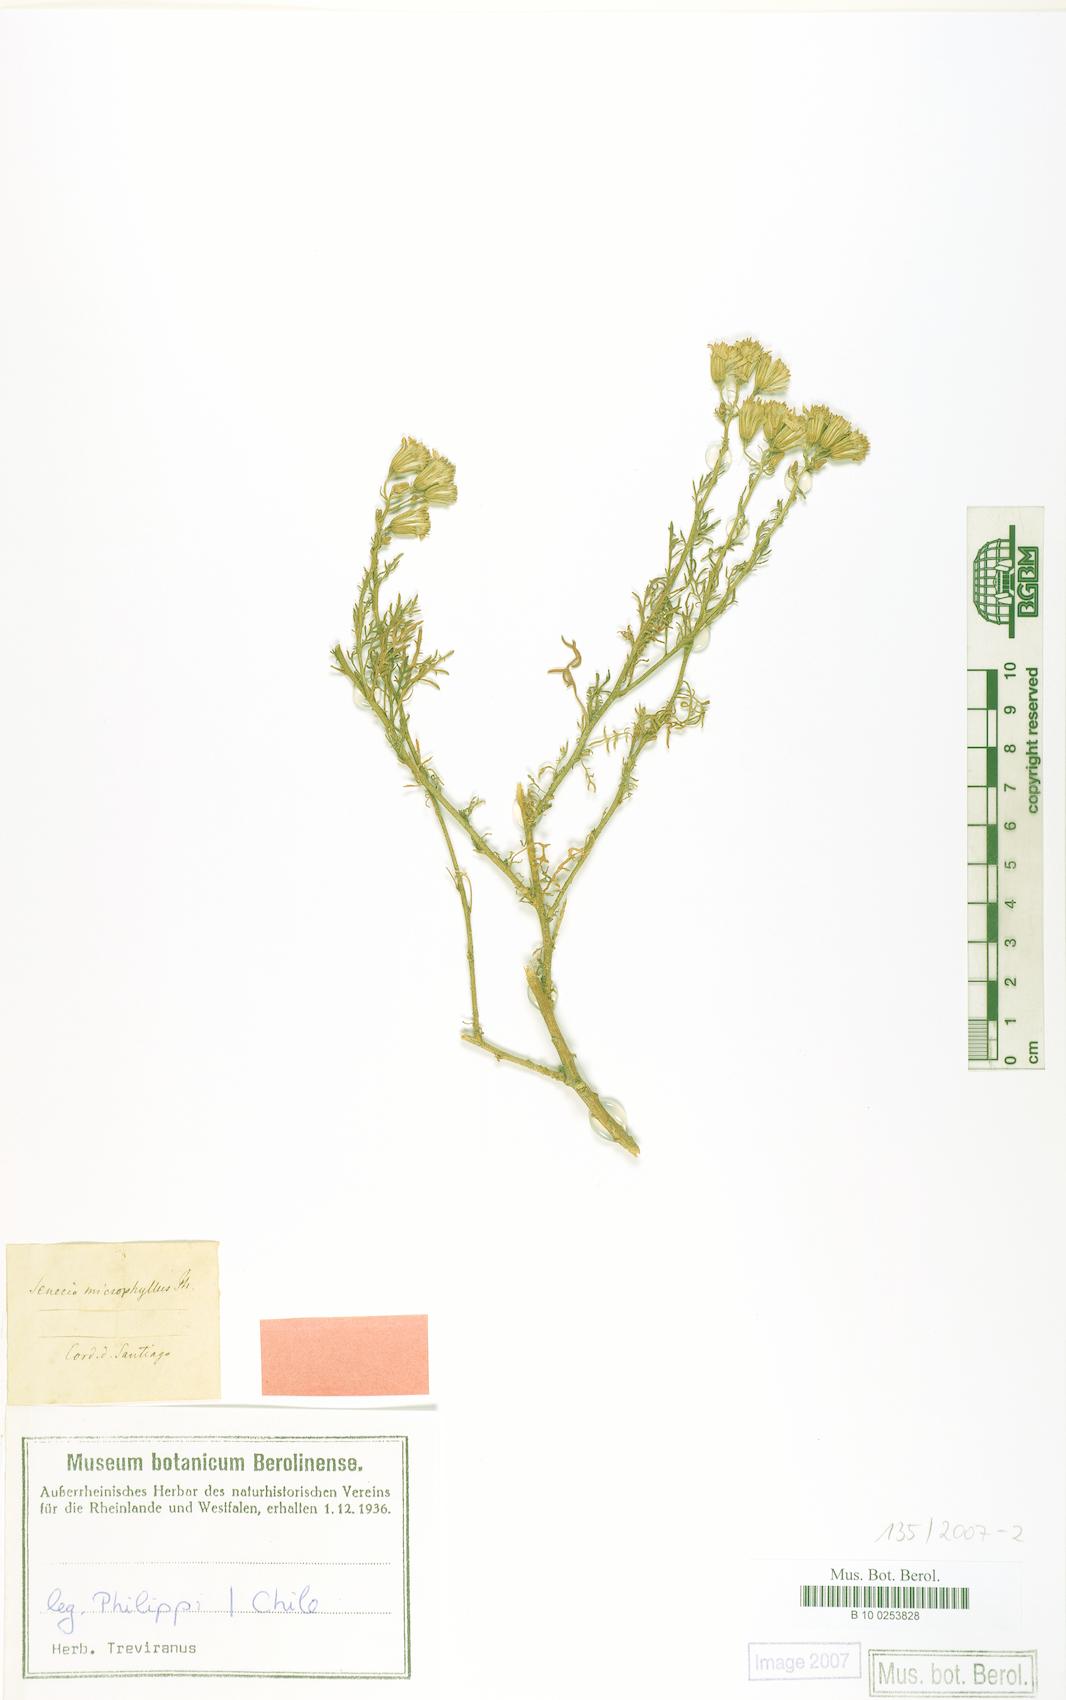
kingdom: Plantae
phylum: Tracheophyta
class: Magnoliopsida
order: Asterales
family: Asteraceae
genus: Senecio
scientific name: Senecio microphyllus
